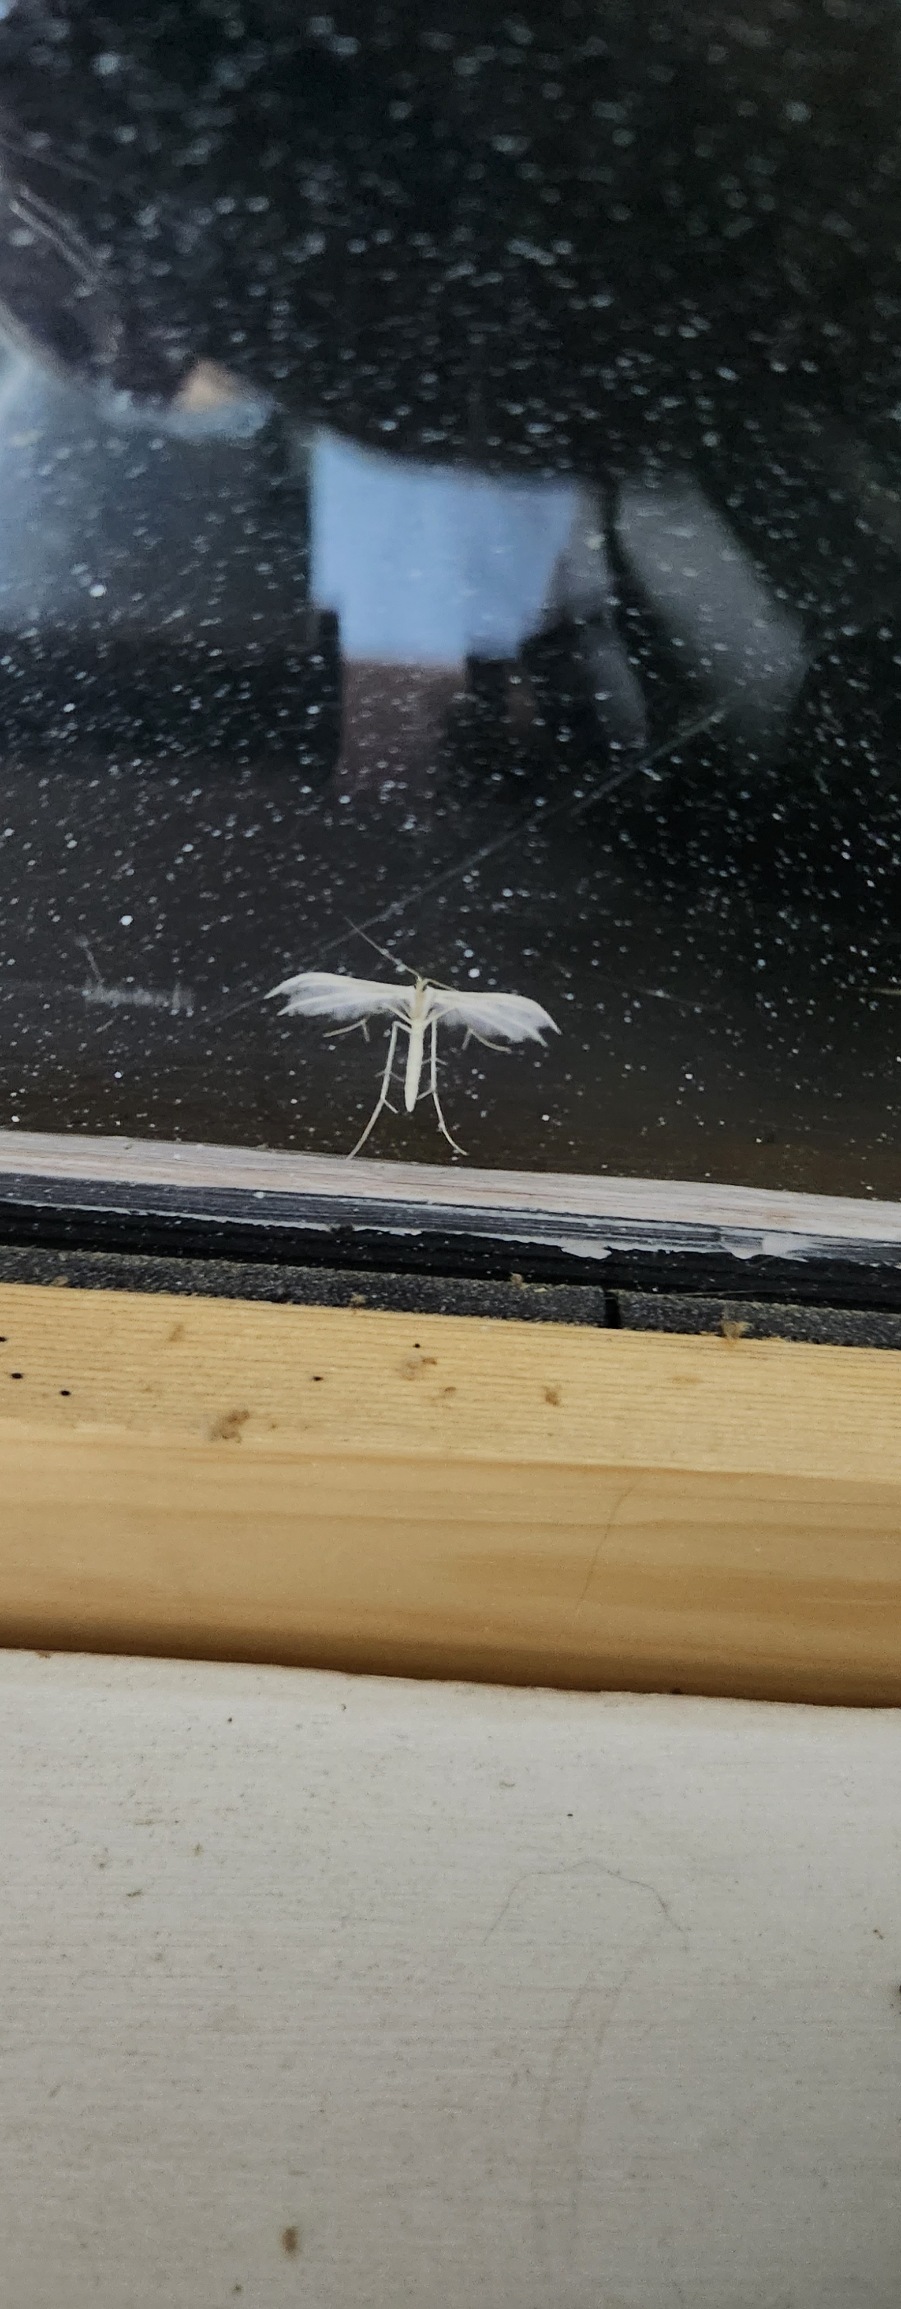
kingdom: Animalia
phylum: Arthropoda
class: Insecta
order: Lepidoptera
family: Pterophoridae
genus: Pterophorus
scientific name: Pterophorus pentadactyla
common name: Hvidt fjermøl
